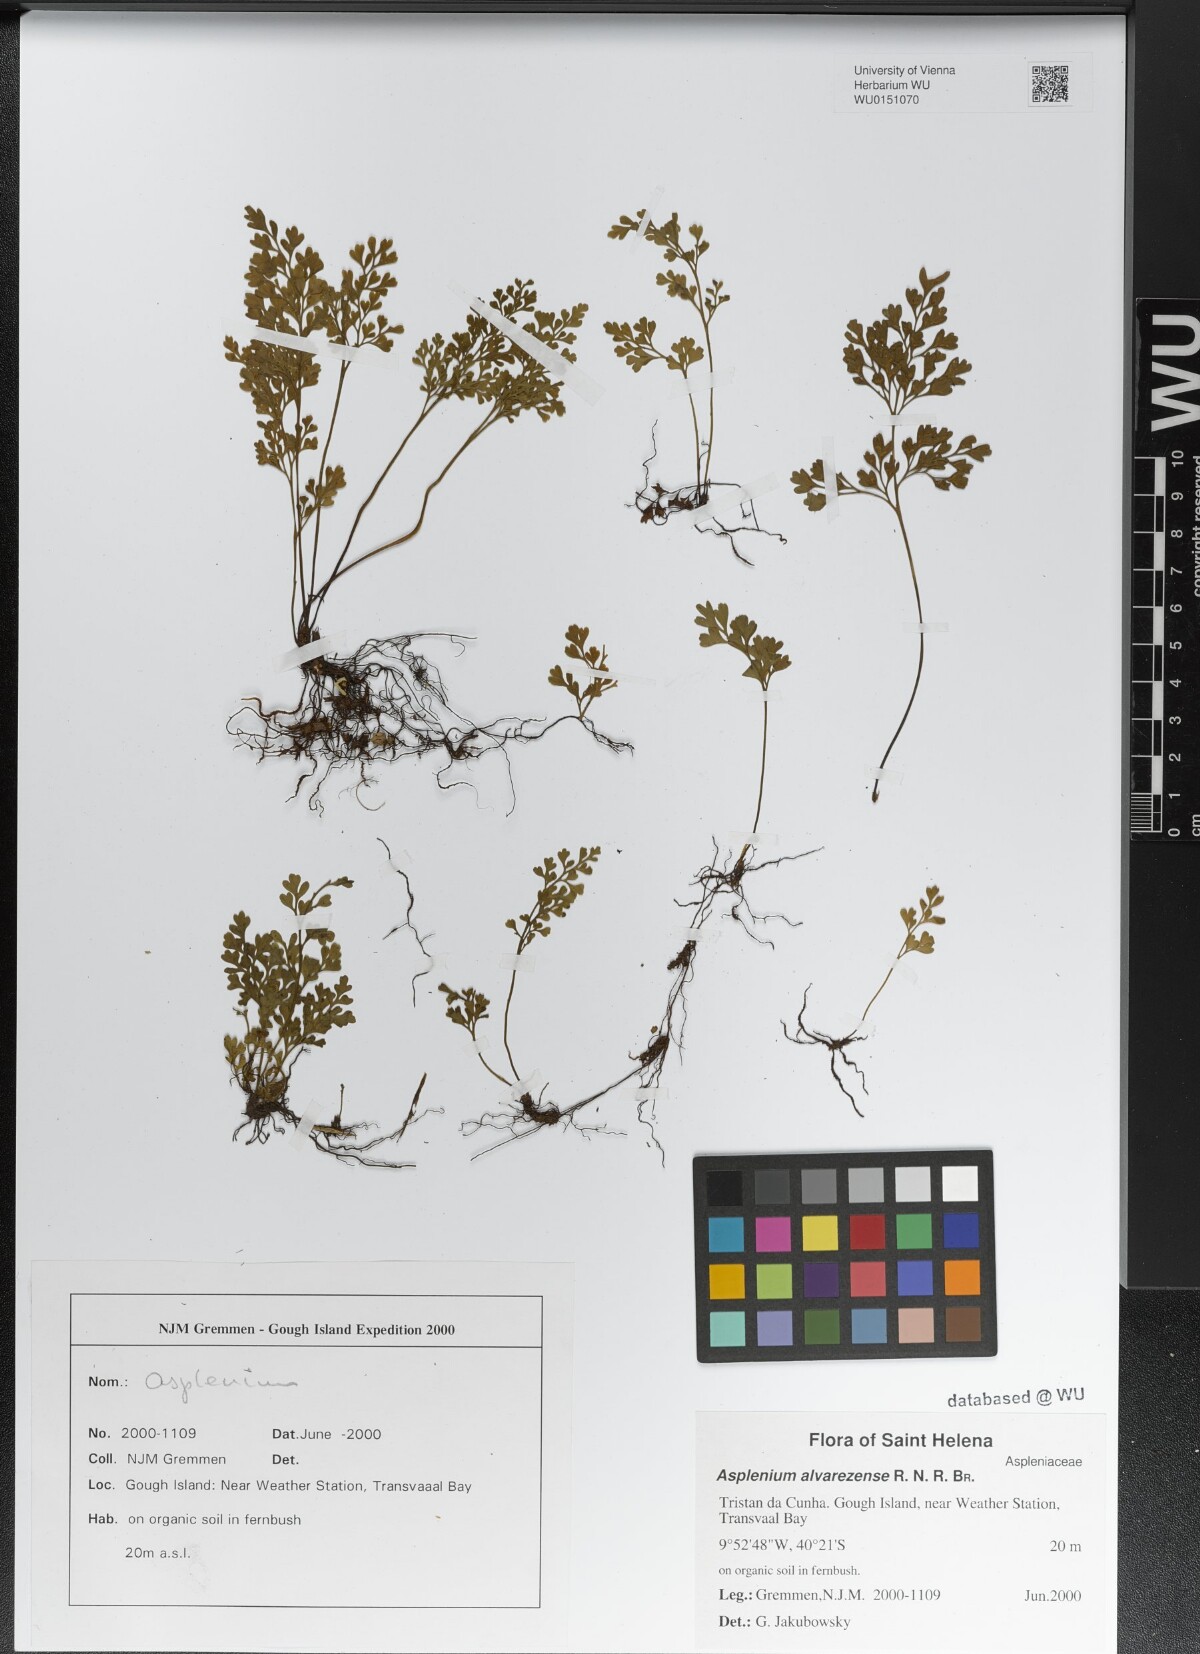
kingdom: Plantae
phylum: Tracheophyta
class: Polypodiopsida
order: Polypodiales
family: Aspleniaceae
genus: Asplenium
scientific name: Asplenium alvarezense
